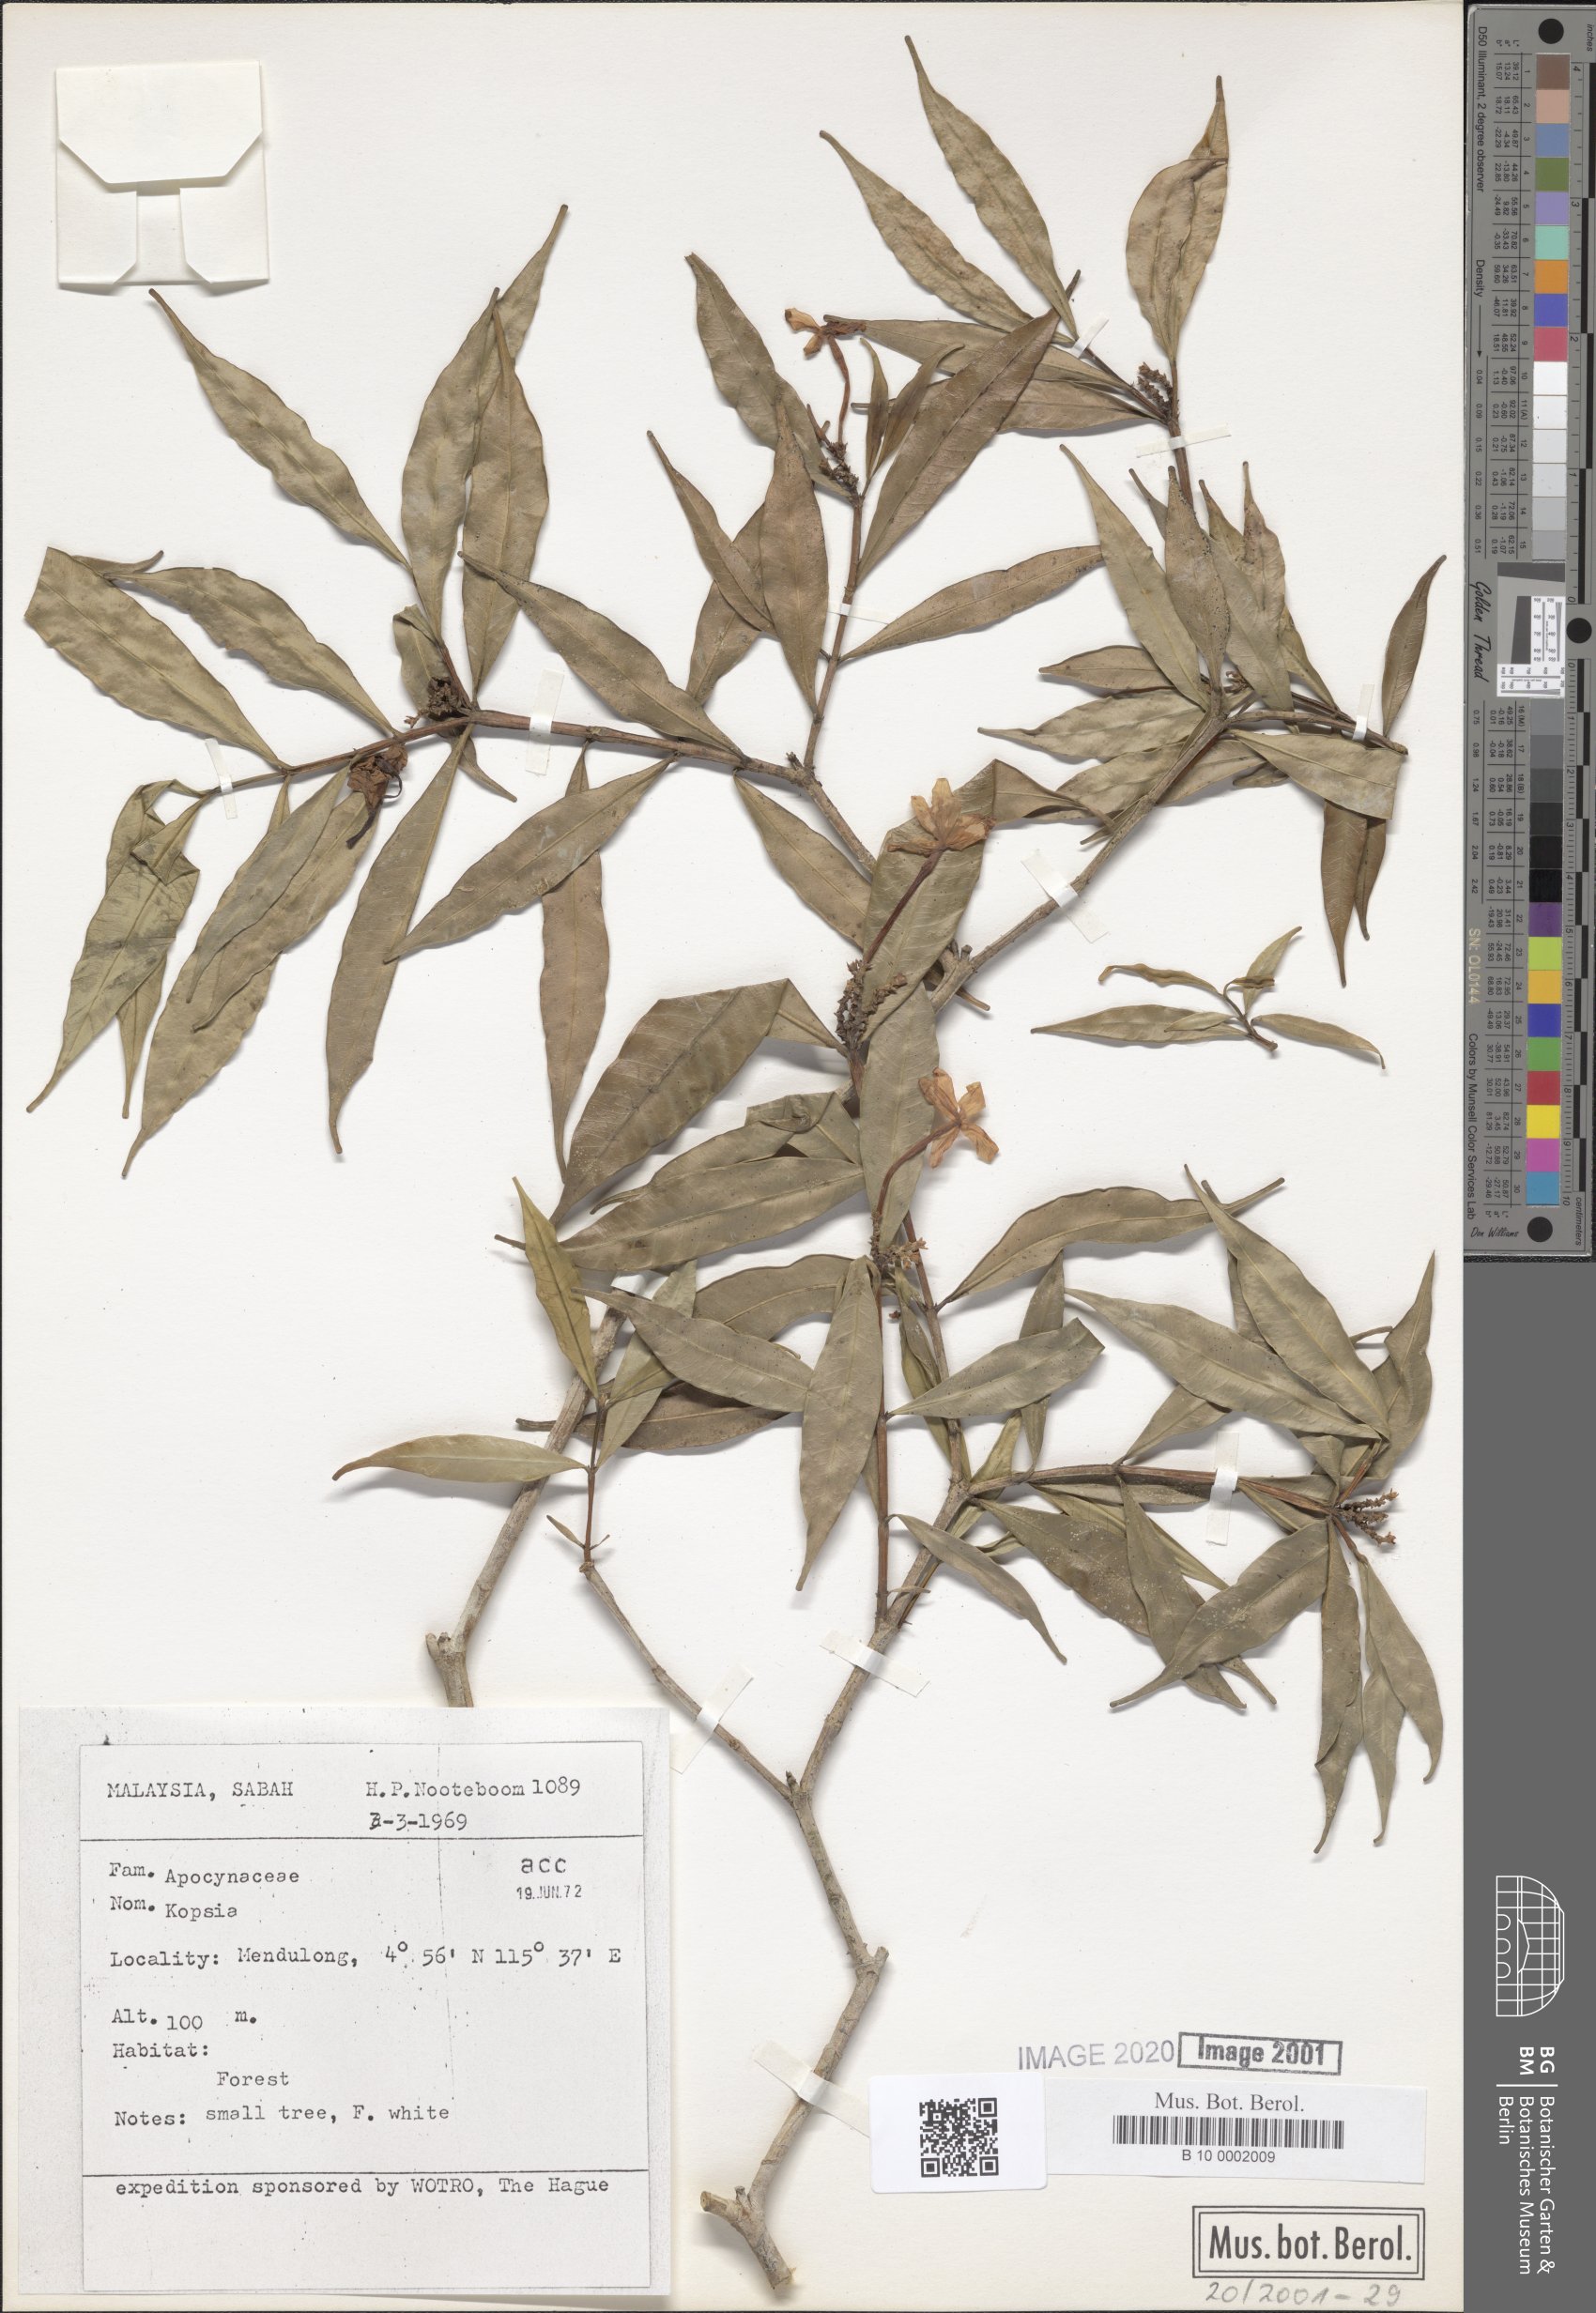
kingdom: Plantae
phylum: Tracheophyta
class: Magnoliopsida
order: Gentianales
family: Apocynaceae
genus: Kopsia
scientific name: Kopsia
